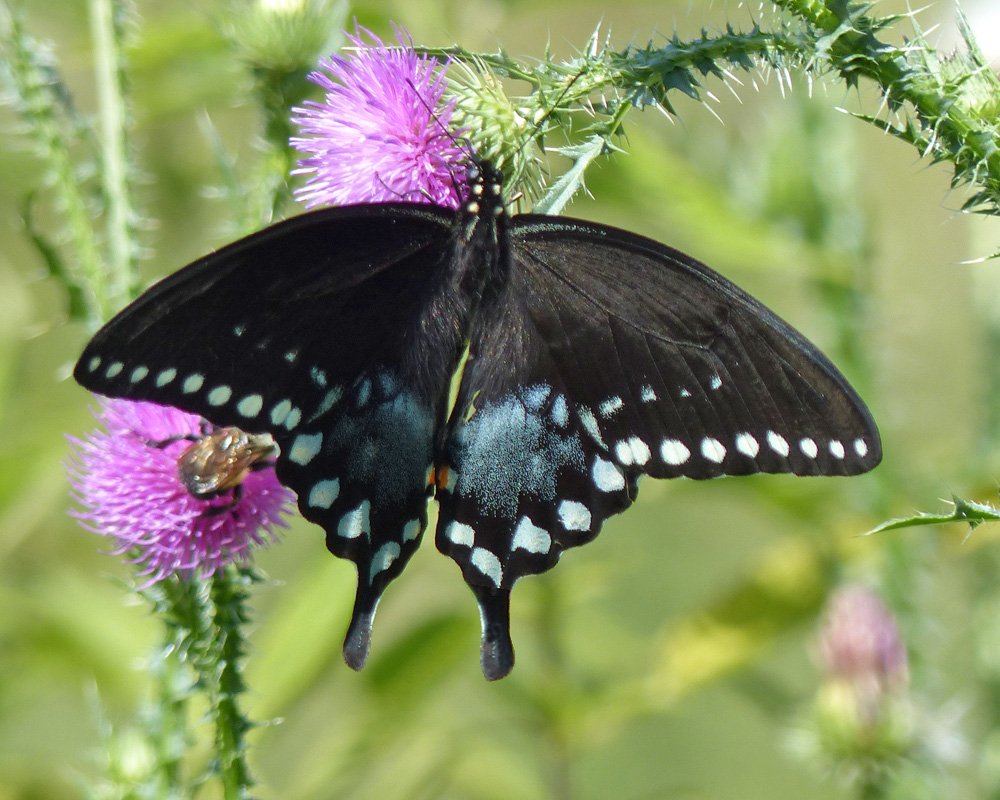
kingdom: Animalia
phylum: Arthropoda
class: Insecta
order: Lepidoptera
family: Papilionidae
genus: Pterourus
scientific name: Pterourus troilus
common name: Spicebush Swallowtail
